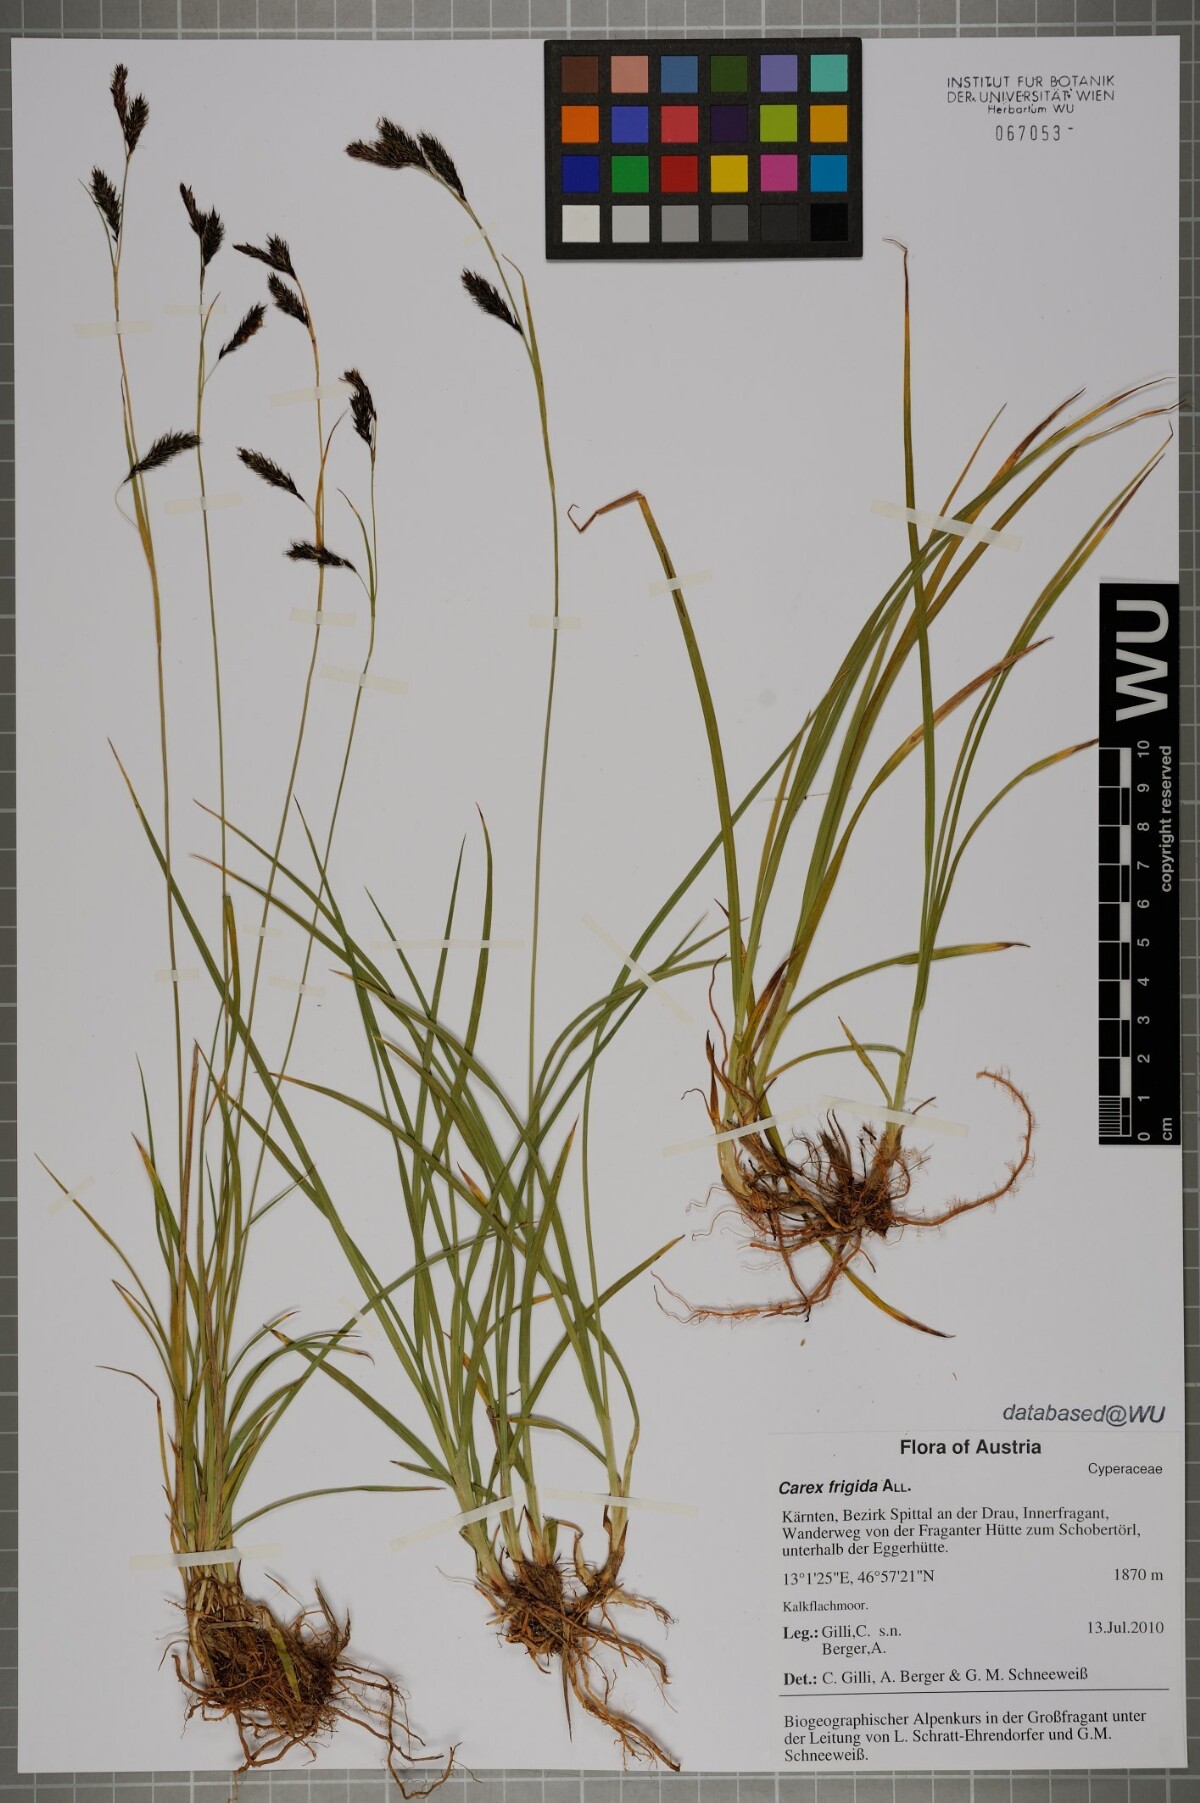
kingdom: Plantae
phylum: Tracheophyta
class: Liliopsida
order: Poales
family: Cyperaceae
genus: Carex
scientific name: Carex frigida
